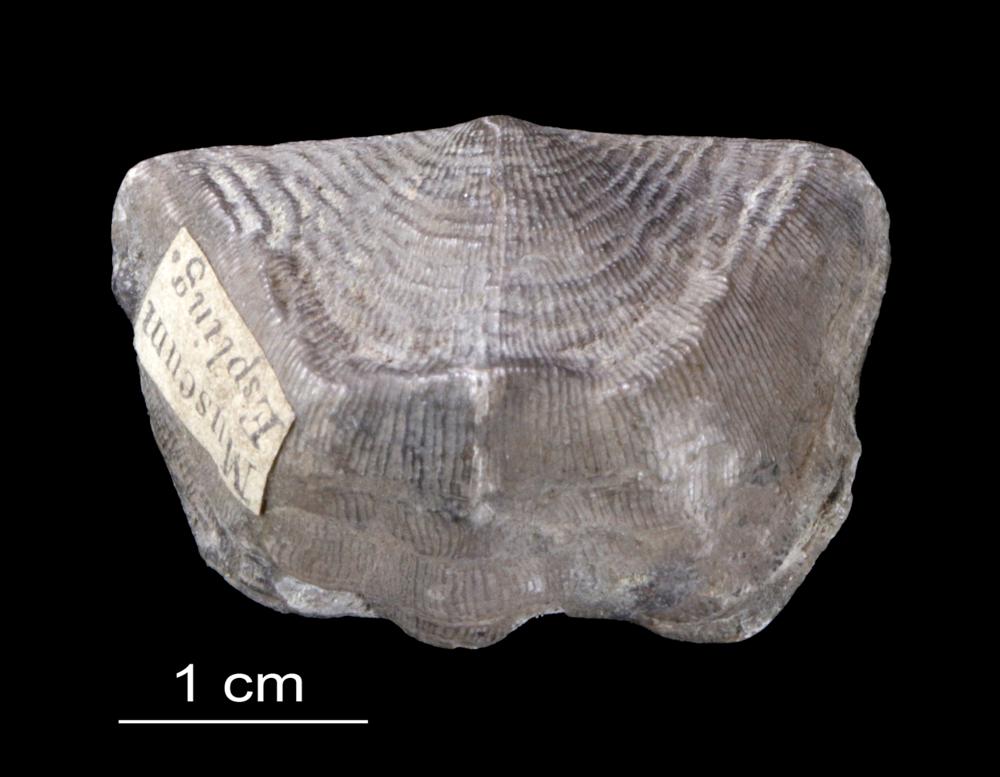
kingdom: Animalia
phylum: Brachiopoda
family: Strophomenidae
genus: Leptaena
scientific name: Leptaena Strophomena rhomboidalis
